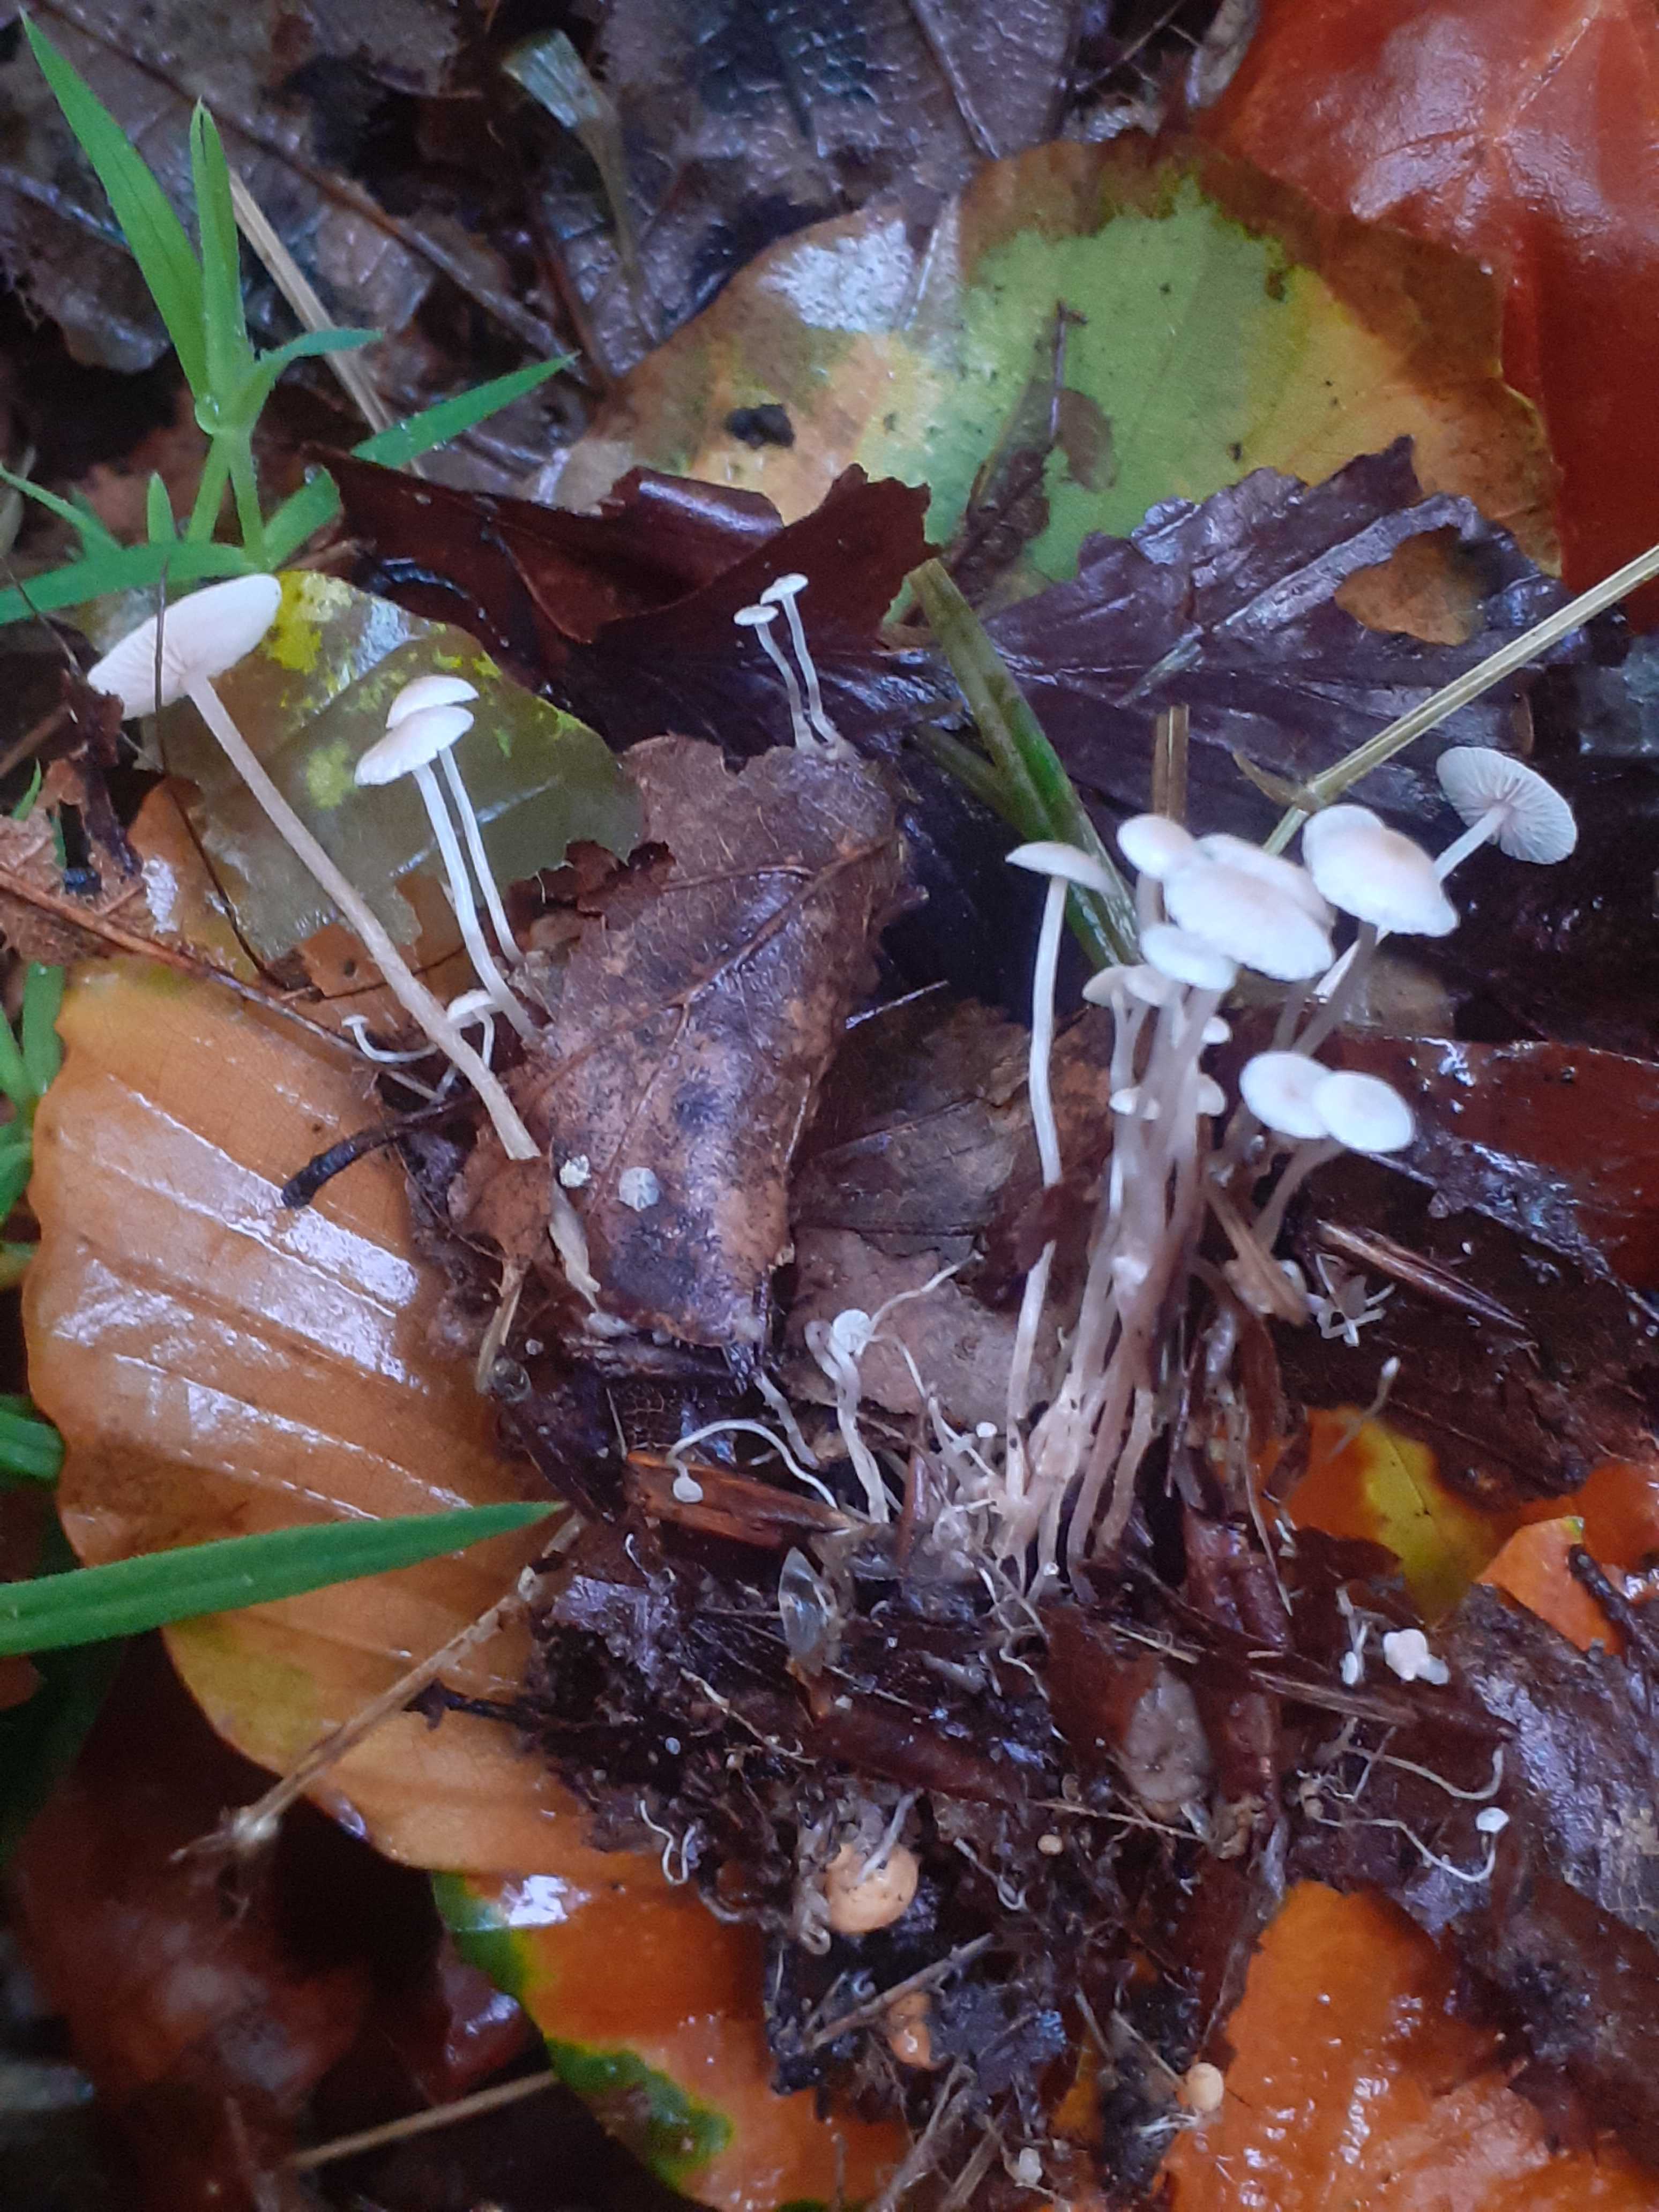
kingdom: Fungi
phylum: Basidiomycota
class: Agaricomycetes
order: Agaricales
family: Tricholomataceae
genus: Collybia
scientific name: Collybia cookei
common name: gulknoldet lighat
